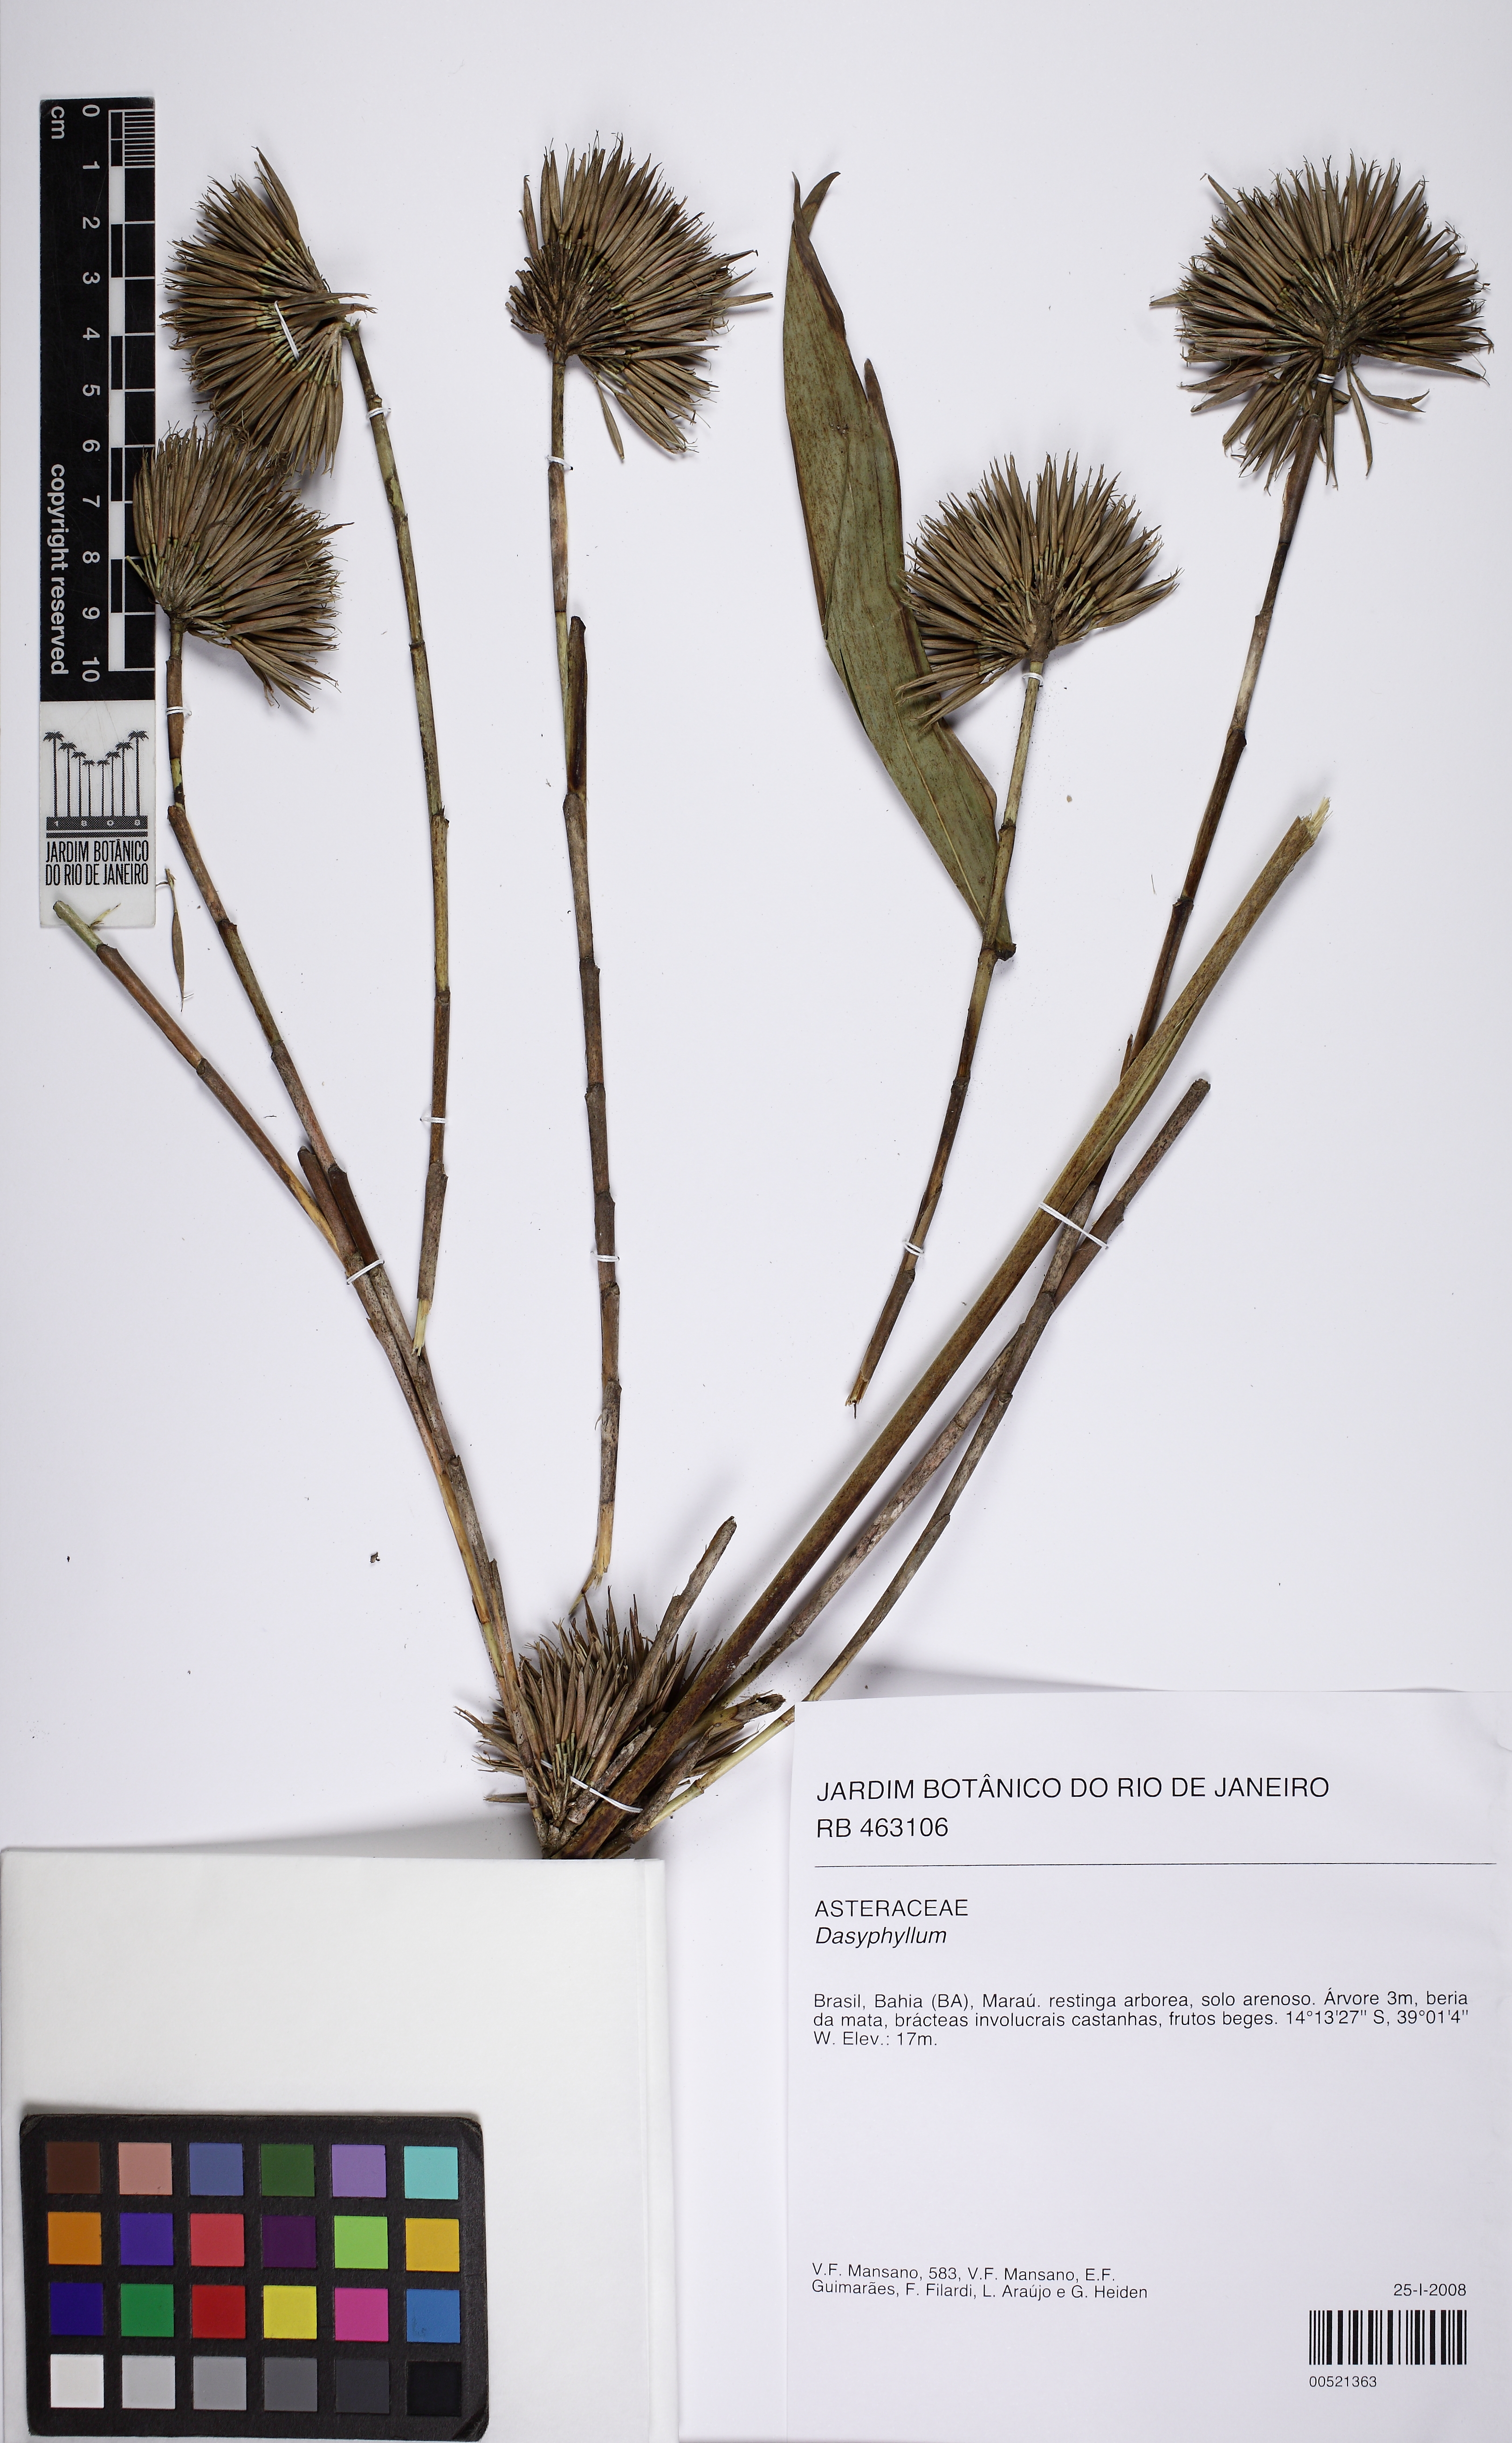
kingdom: Plantae
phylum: Tracheophyta
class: Magnoliopsida
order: Asterales
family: Asteraceae
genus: Dasyphyllum
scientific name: Dasyphyllum
